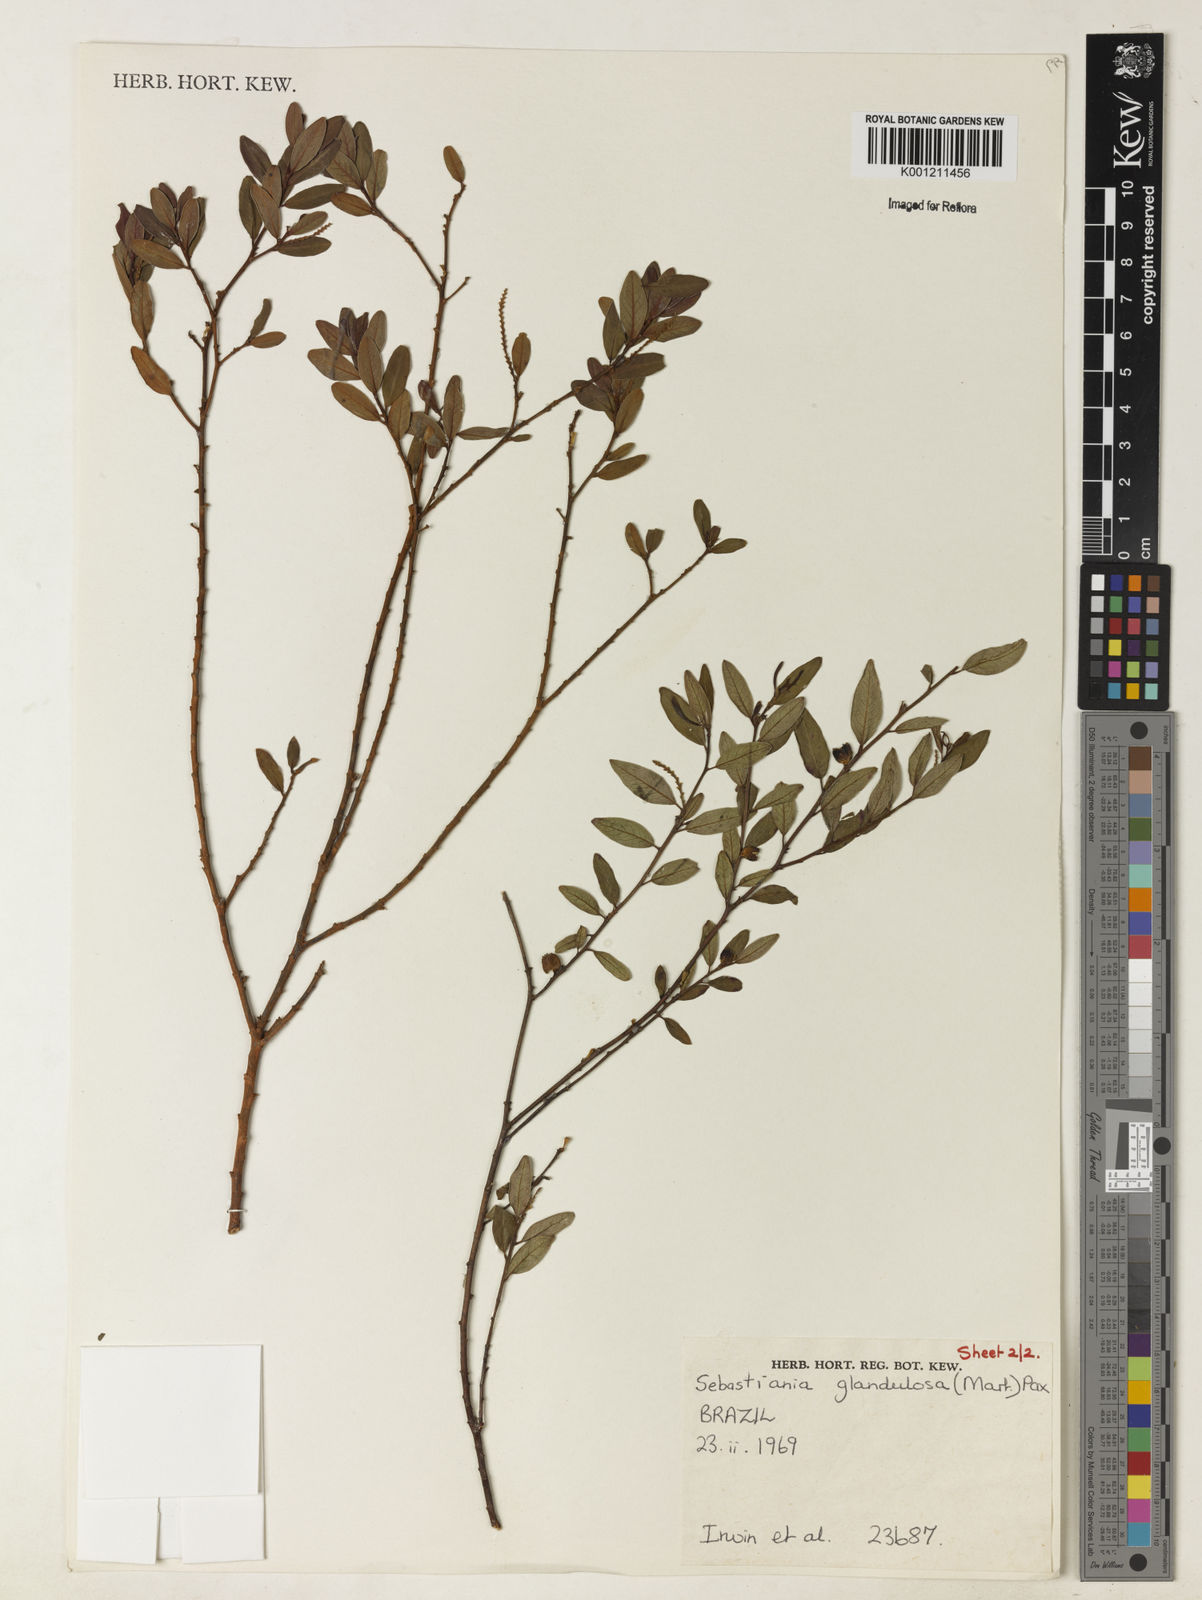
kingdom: Plantae
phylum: Tracheophyta
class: Magnoliopsida
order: Malpighiales
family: Euphorbiaceae
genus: Microstachys
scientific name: Microstachys glandulosa
